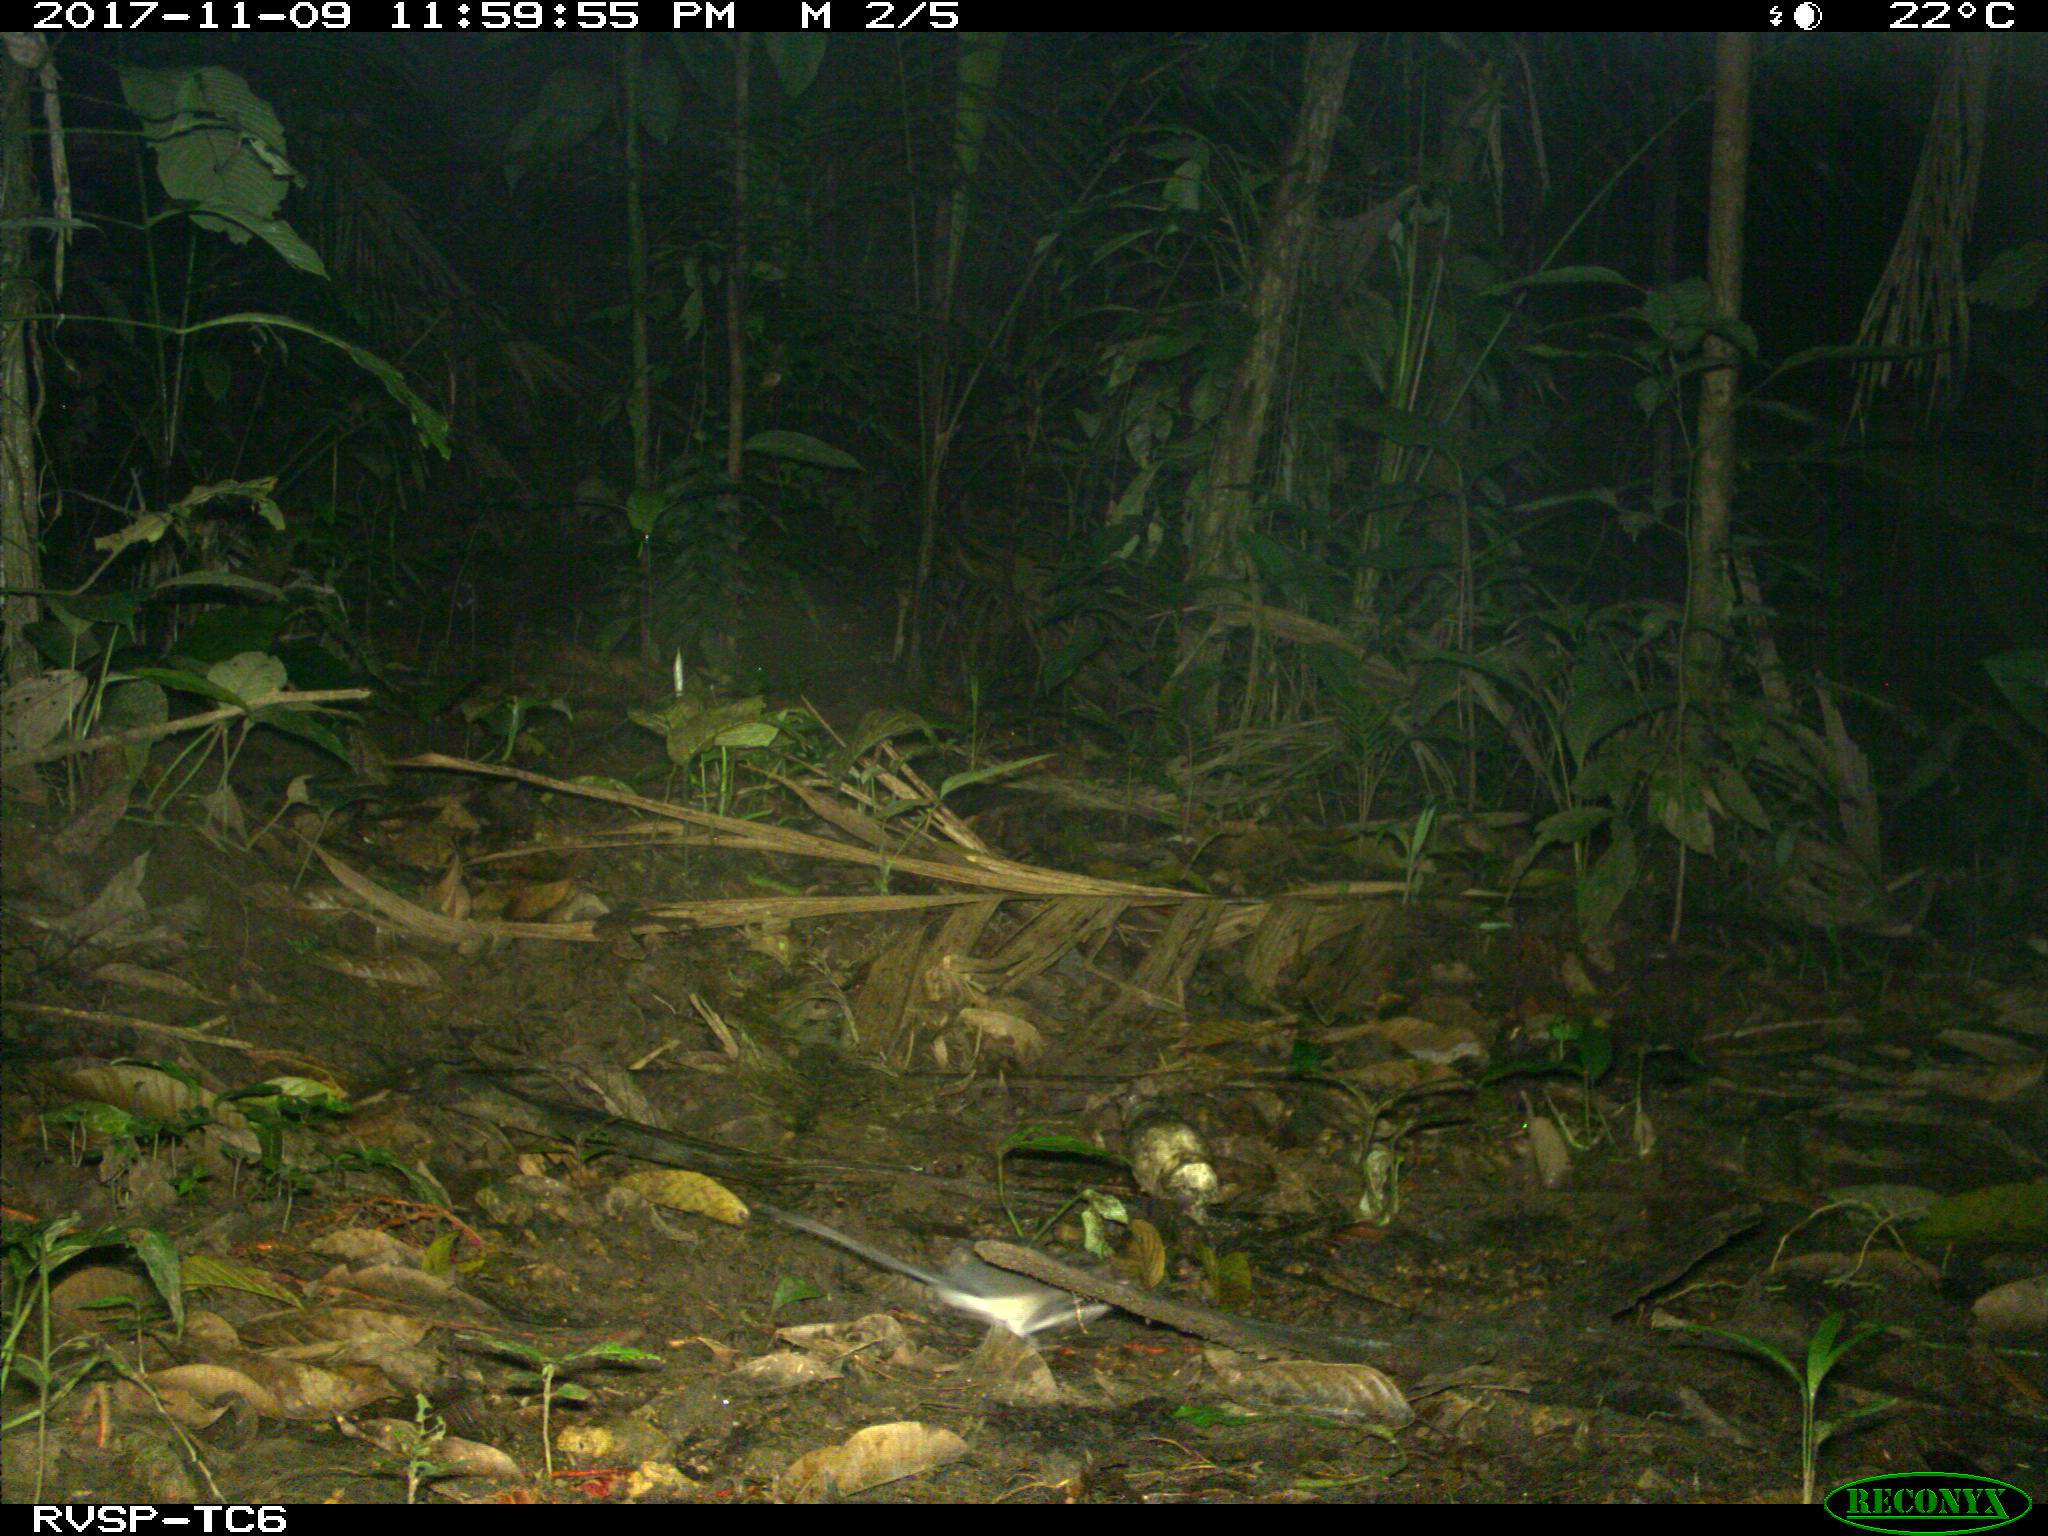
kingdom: Animalia
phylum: Chordata
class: Mammalia
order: Rodentia
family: Echimyidae
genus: Proechimys
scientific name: Proechimys
